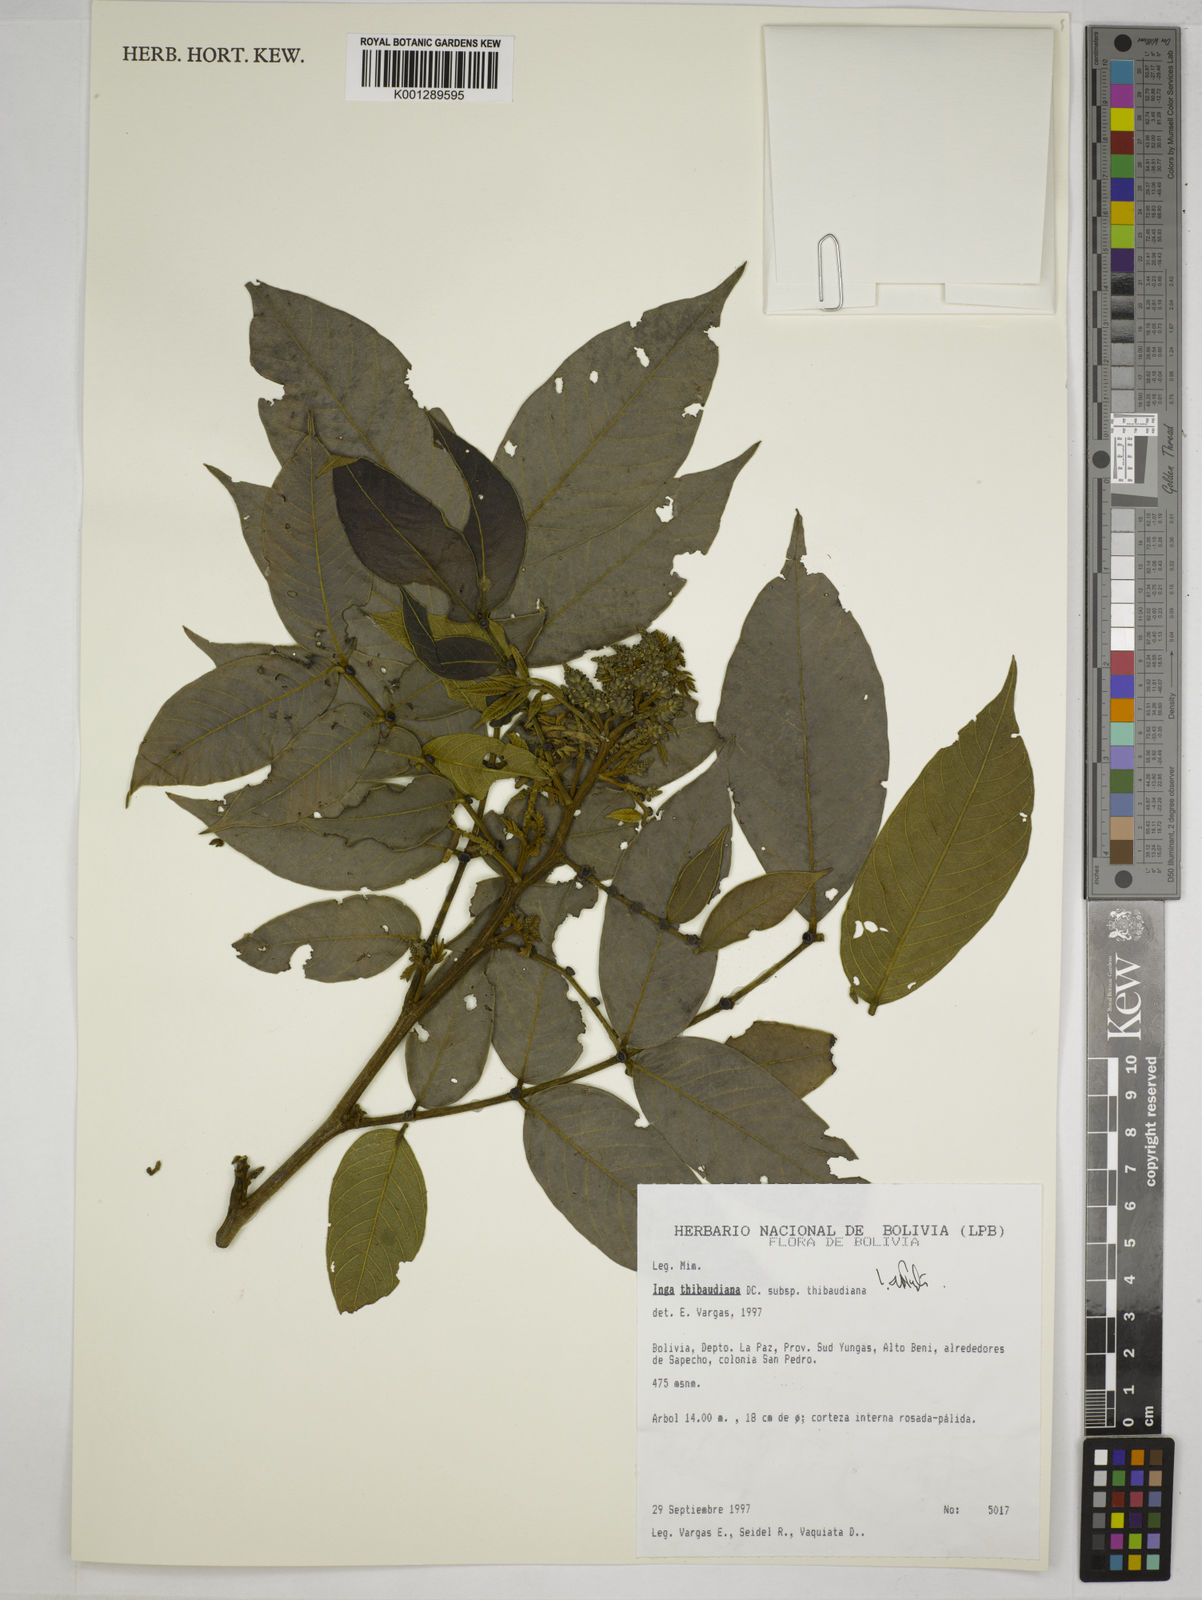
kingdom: Plantae
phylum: Tracheophyta
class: Magnoliopsida
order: Fabales
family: Fabaceae
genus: Inga
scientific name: Inga thibaudiana
